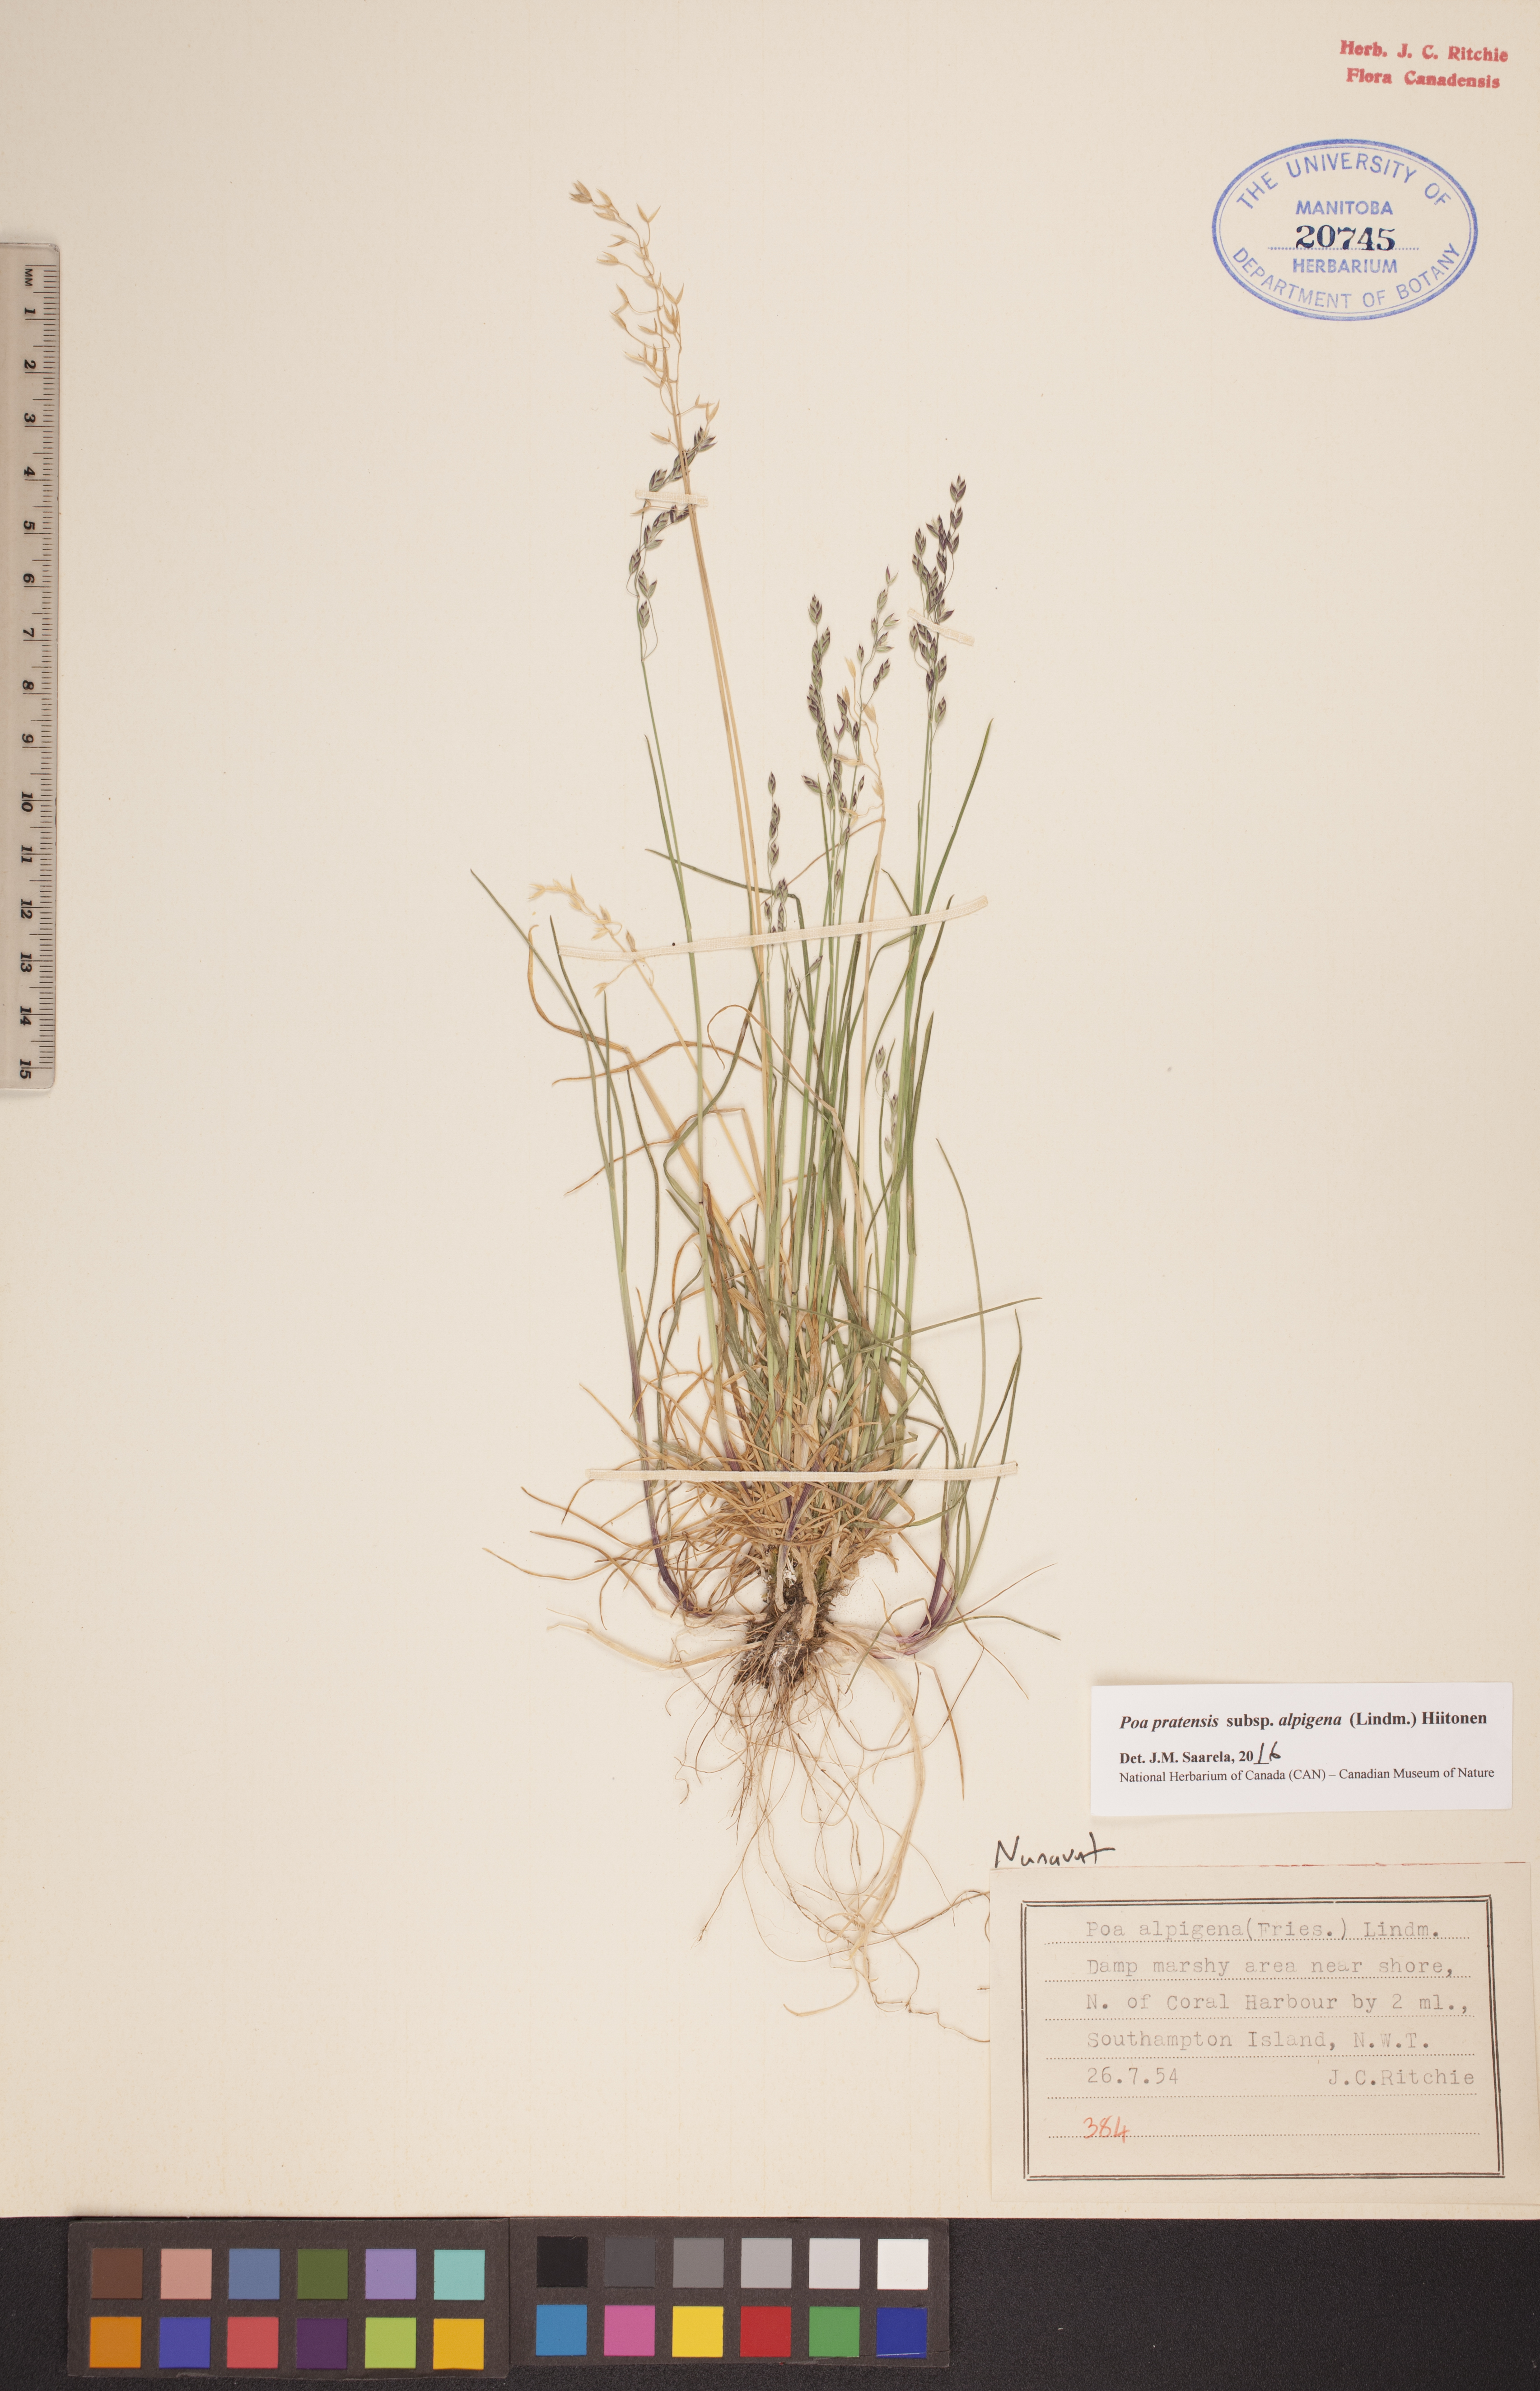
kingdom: Plantae
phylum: Tracheophyta
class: Liliopsida
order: Poales
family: Poaceae
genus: Poa
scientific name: Poa alpigena
